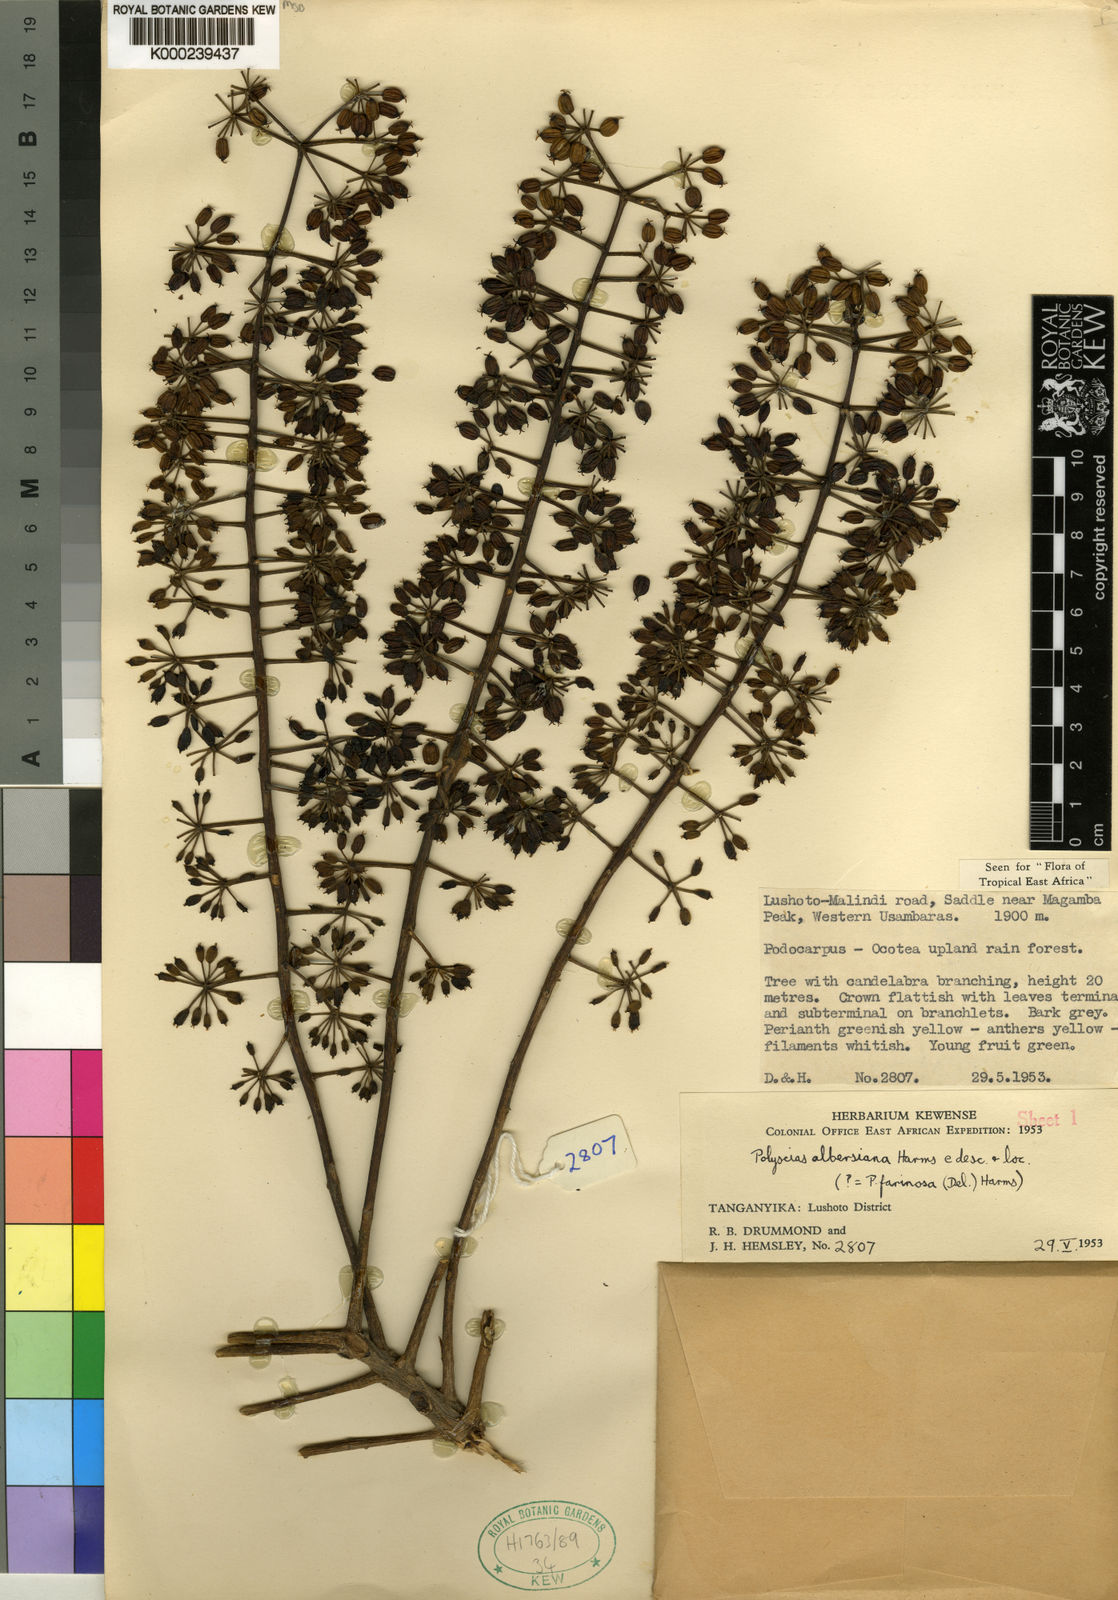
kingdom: Plantae
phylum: Tracheophyta
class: Magnoliopsida
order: Apiales
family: Araliaceae
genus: Polyscias
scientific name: Polyscias albersiana
